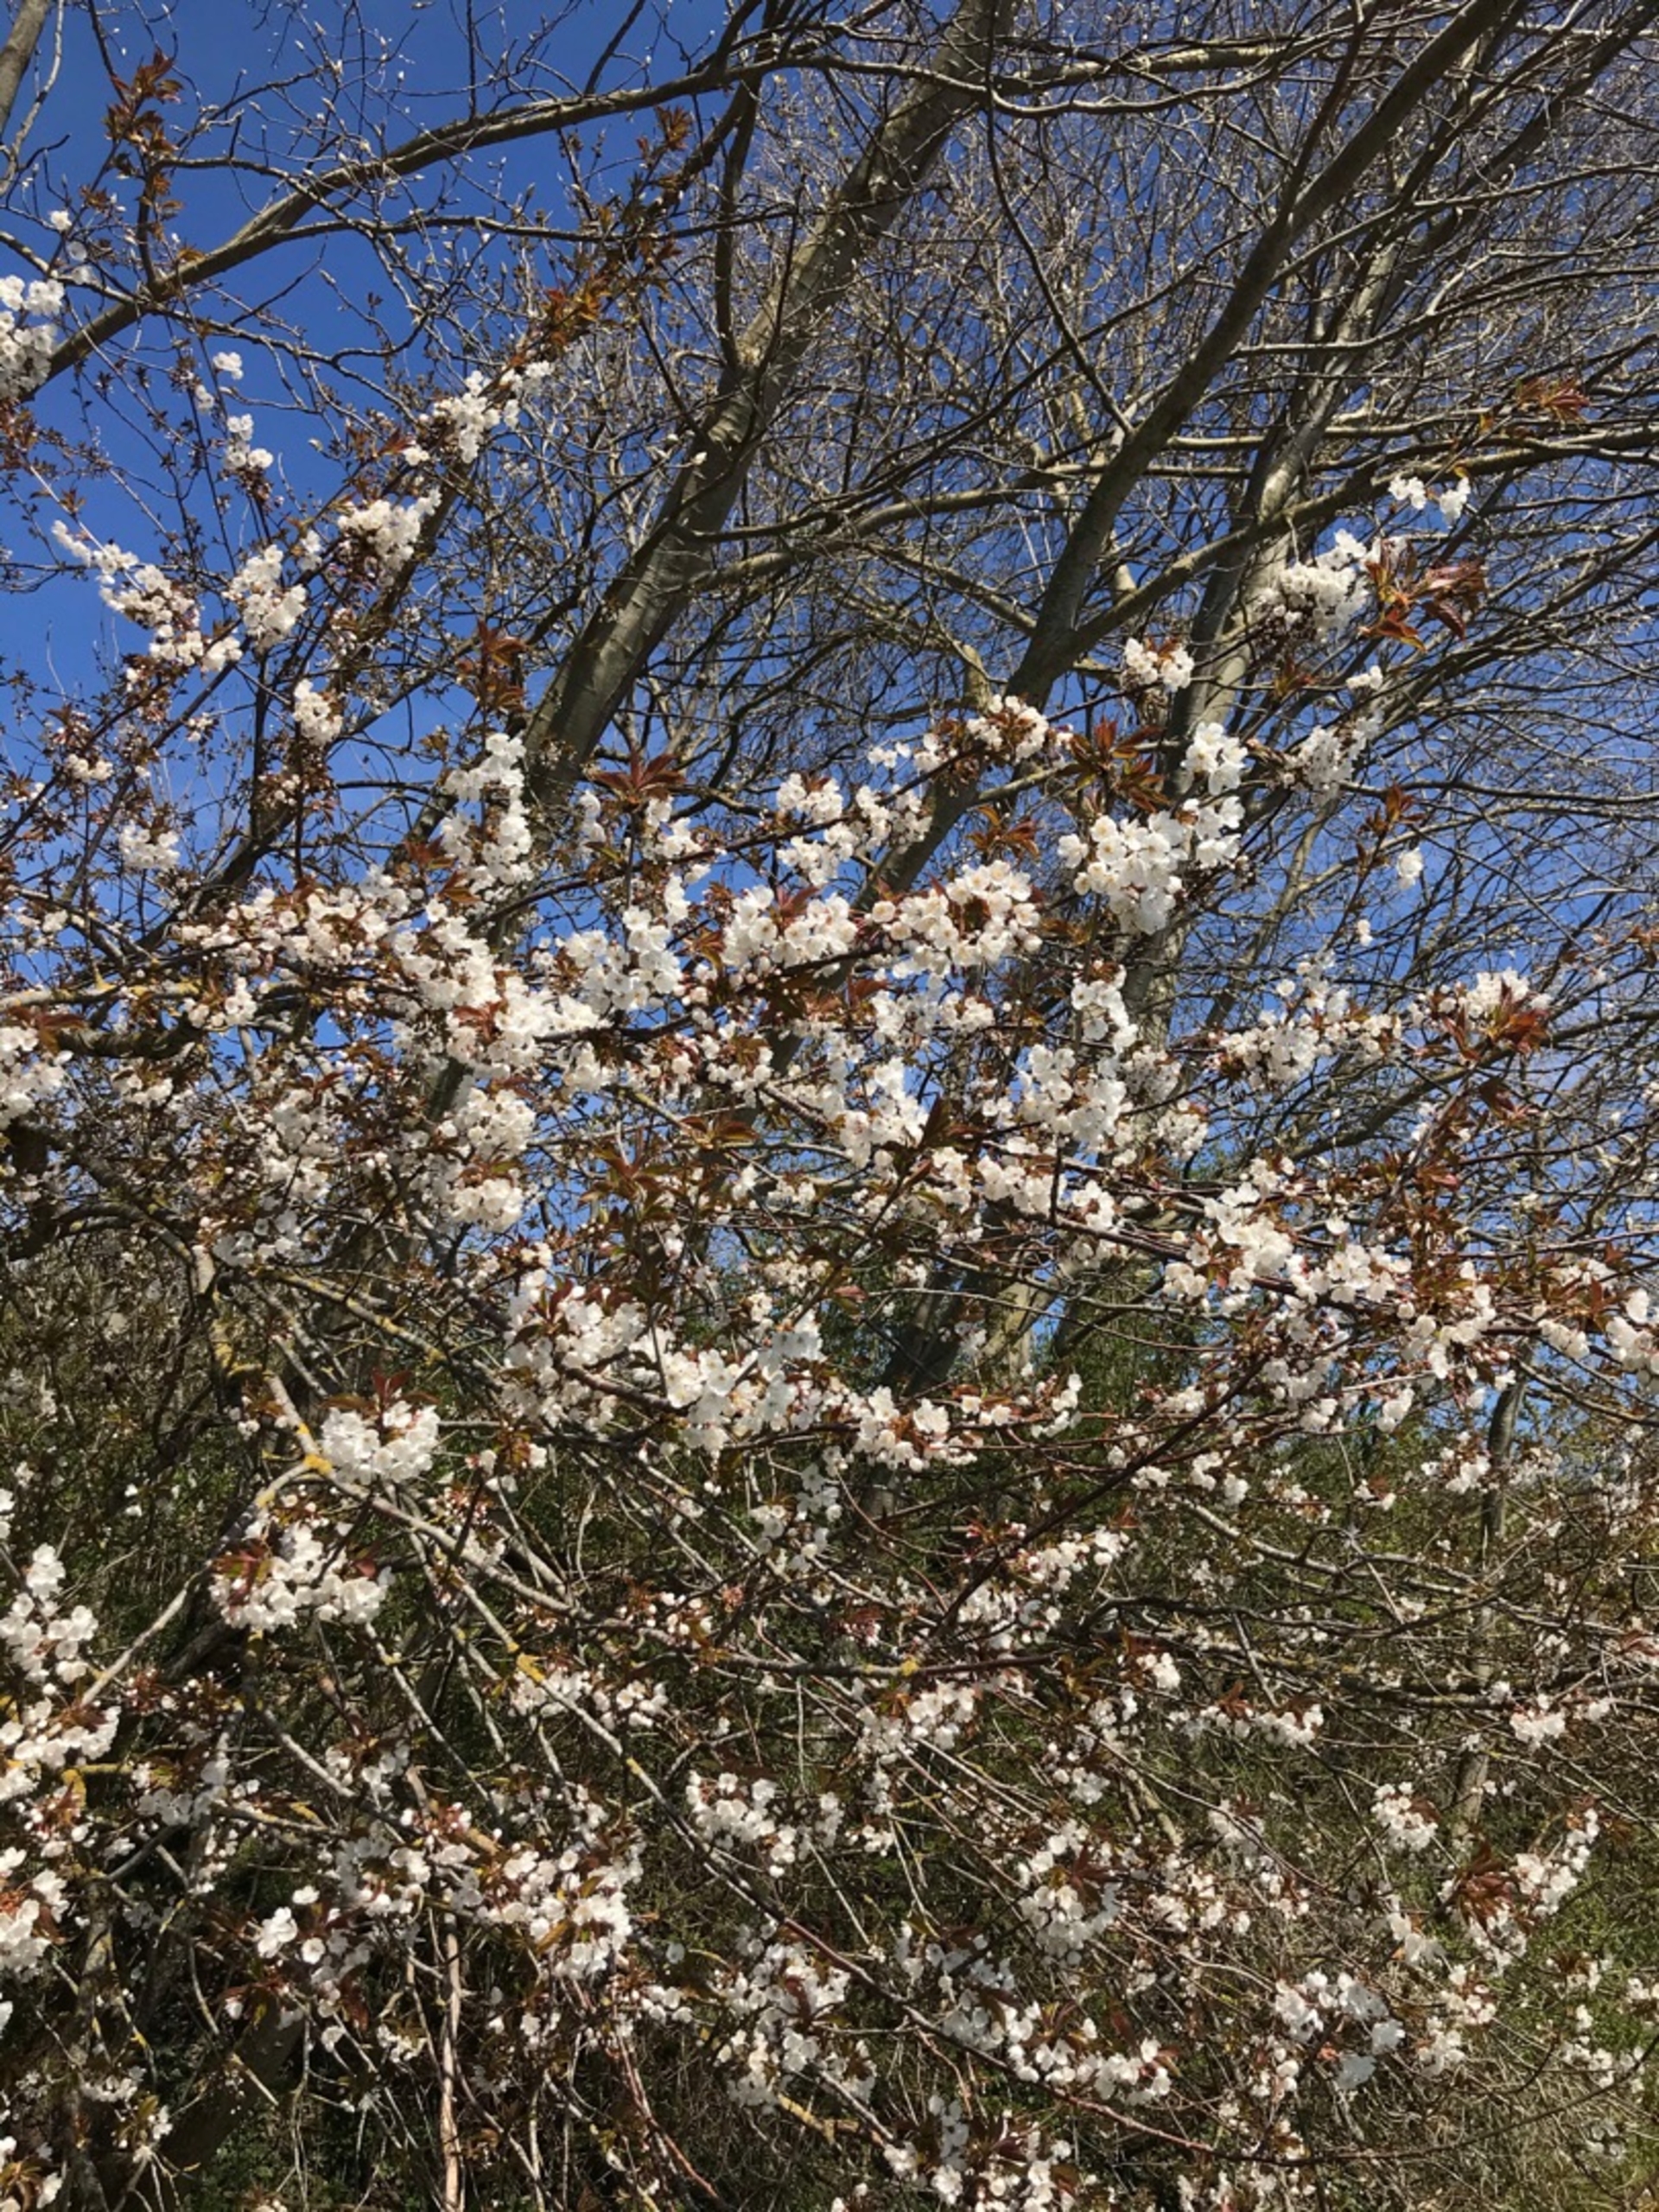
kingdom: Plantae
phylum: Tracheophyta
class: Magnoliopsida
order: Rosales
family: Rosaceae
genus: Prunus
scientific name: Prunus avium
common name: Fugle-kirsebær
